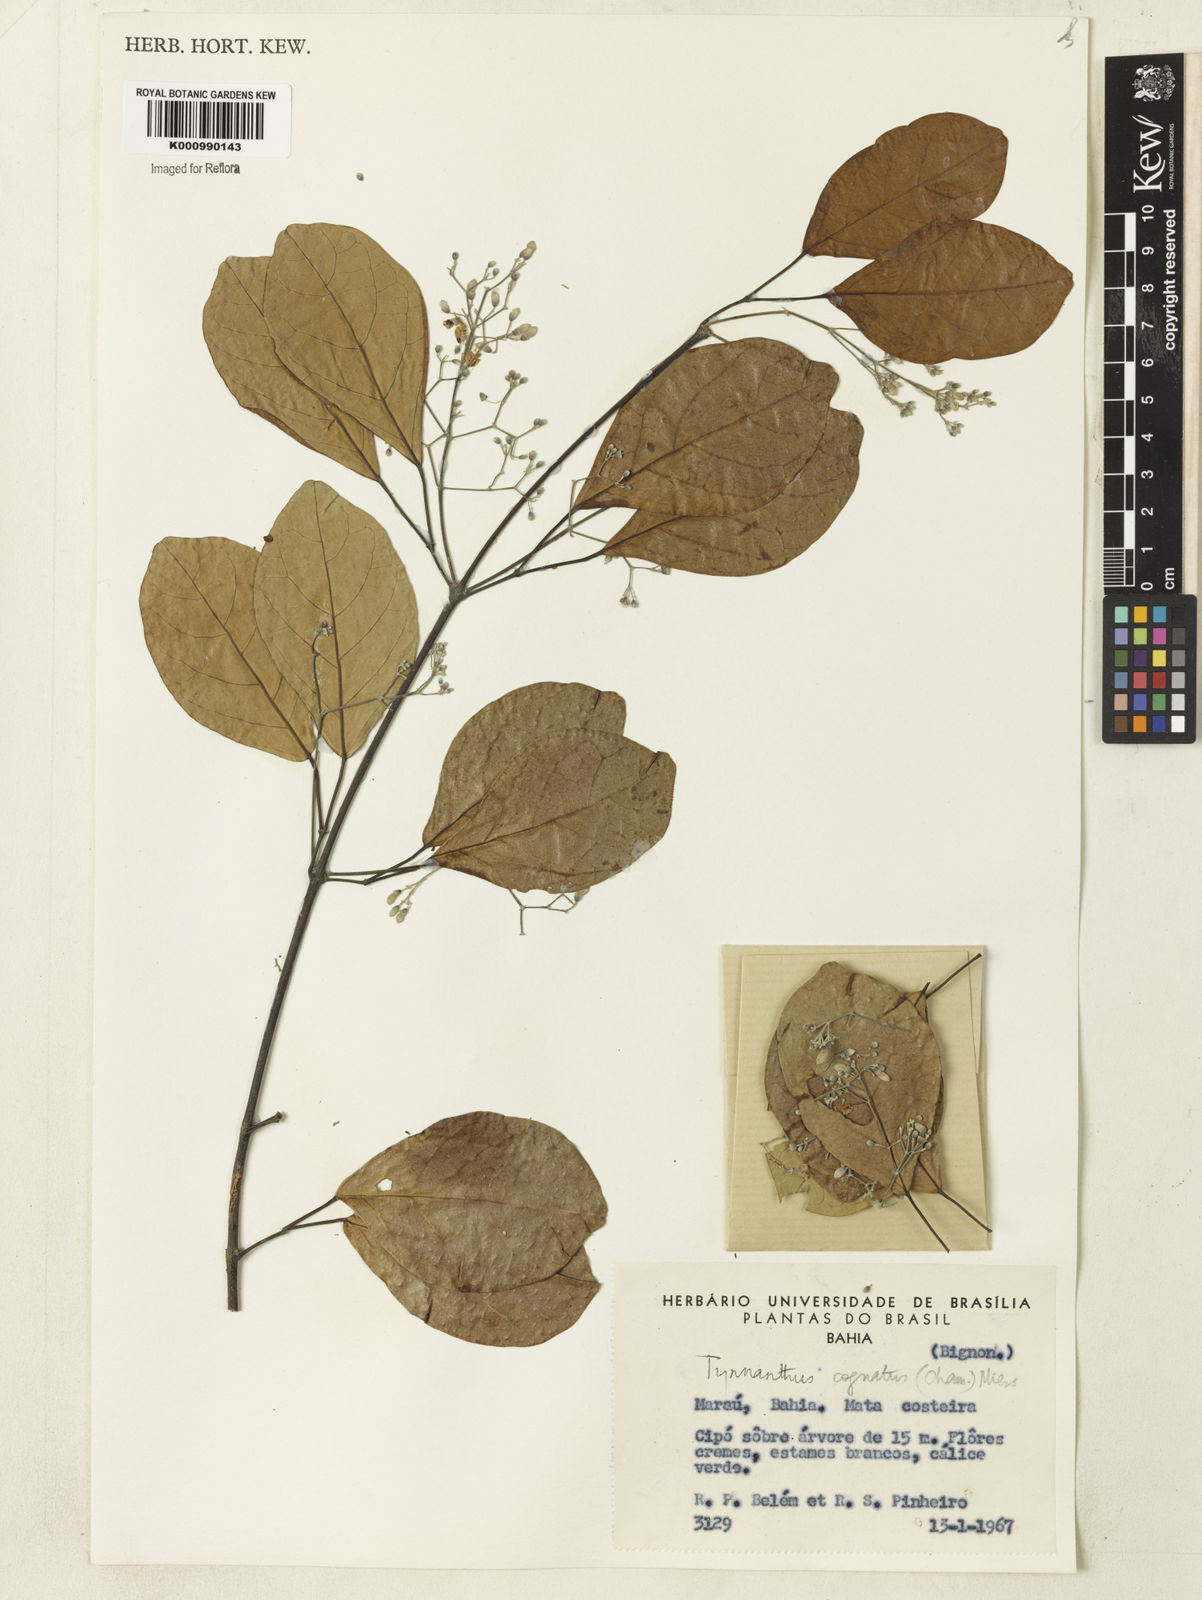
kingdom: Plantae
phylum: Tracheophyta
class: Magnoliopsida
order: Lamiales
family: Bignoniaceae
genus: Tynanthus
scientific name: Tynanthus cognatus
